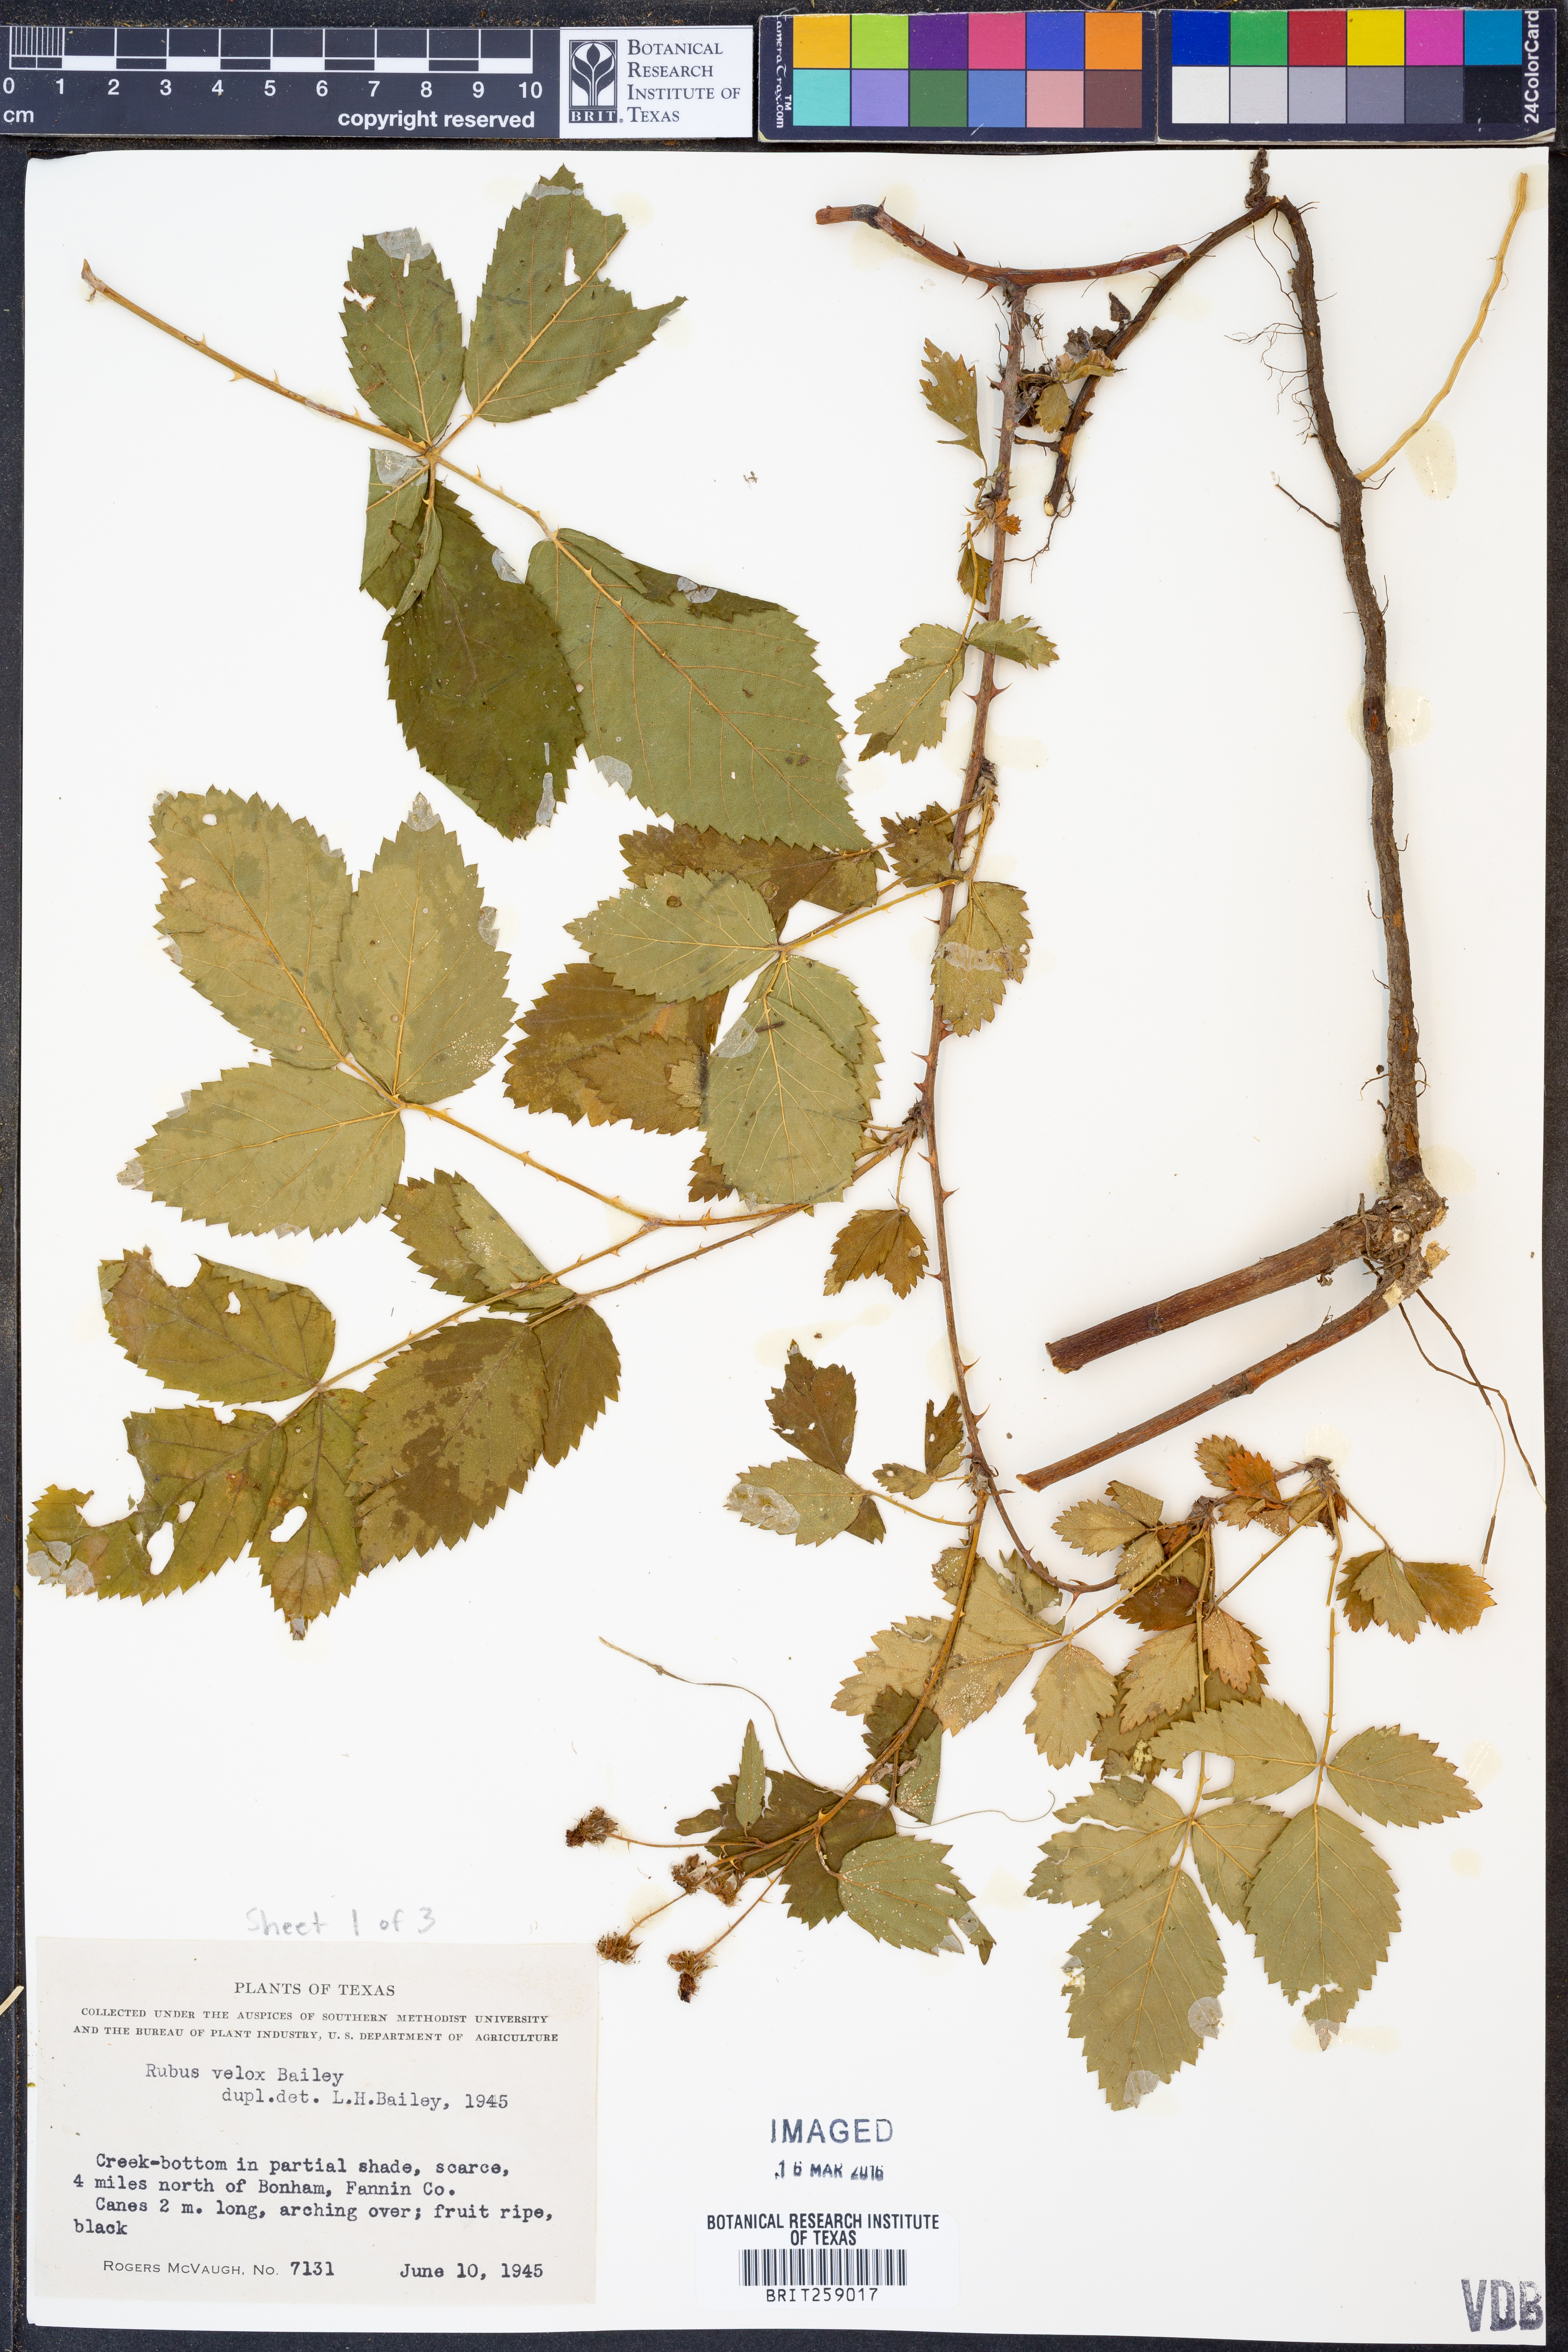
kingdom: Plantae
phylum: Tracheophyta
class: Magnoliopsida
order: Rosales
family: Rosaceae
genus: Rubus
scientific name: Rubus velox
